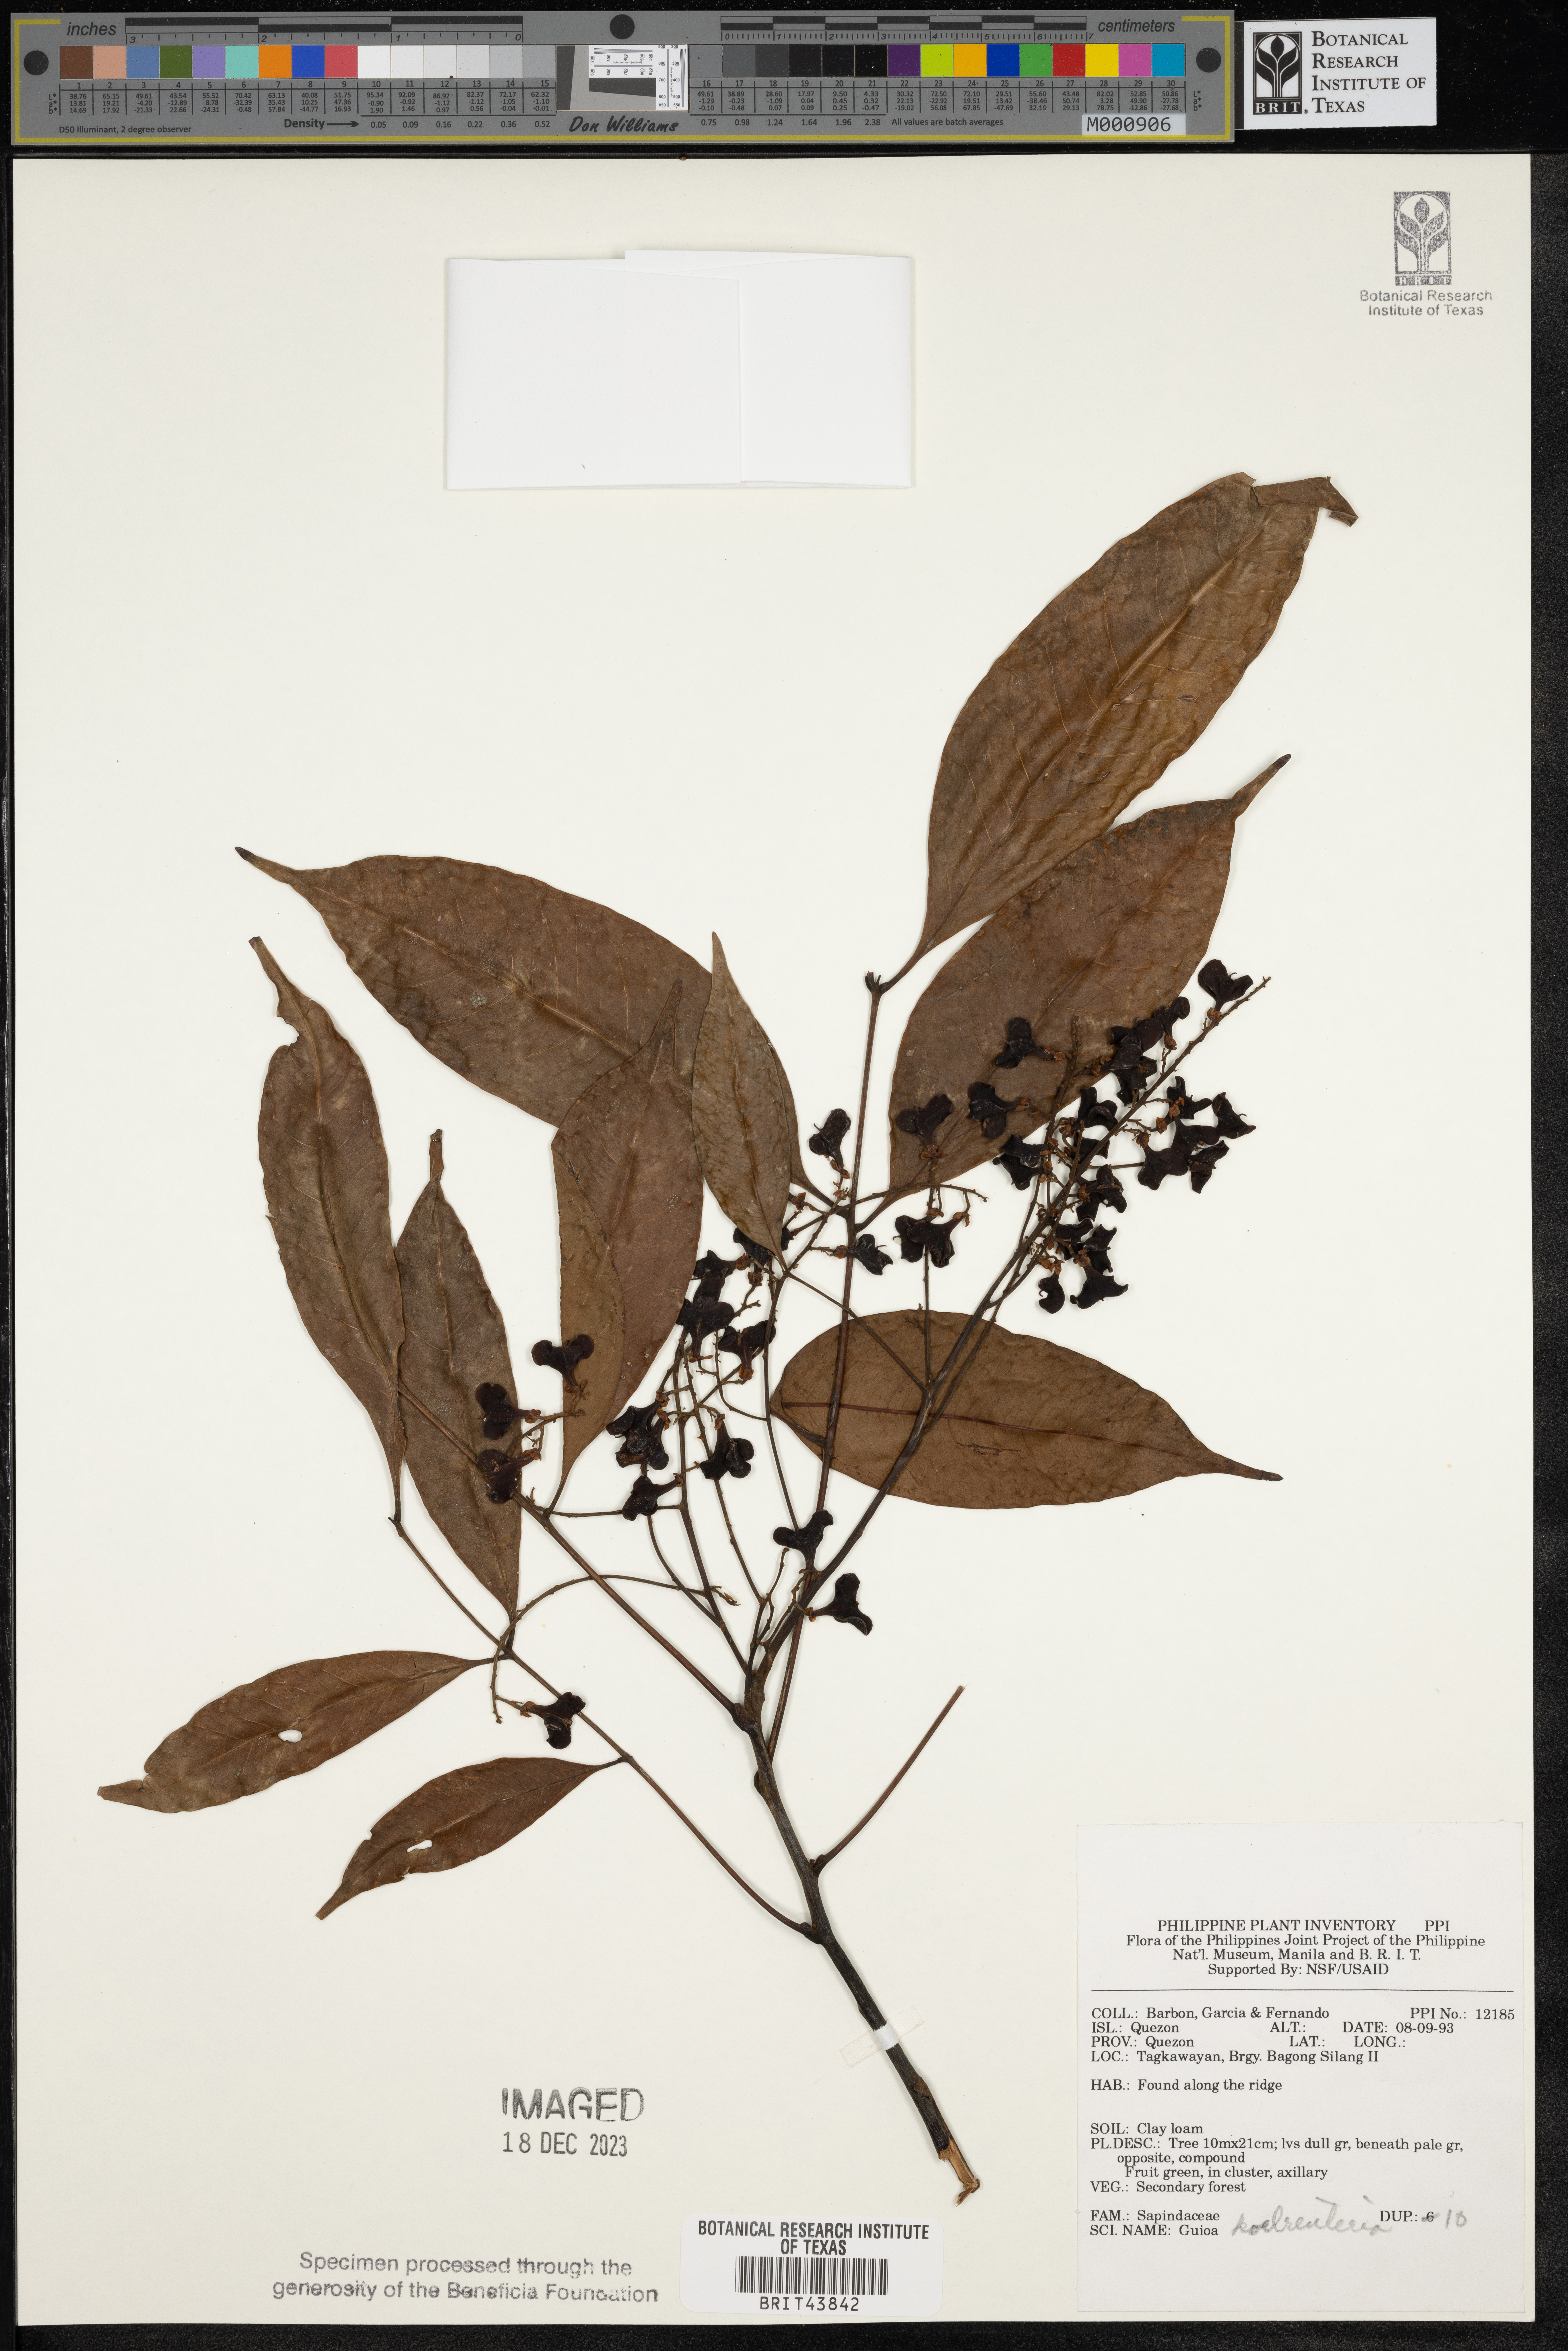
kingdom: Plantae
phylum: Tracheophyta
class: Magnoliopsida
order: Sapindales
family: Sapindaceae
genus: Guioa
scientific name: Guioa koelreuteria
